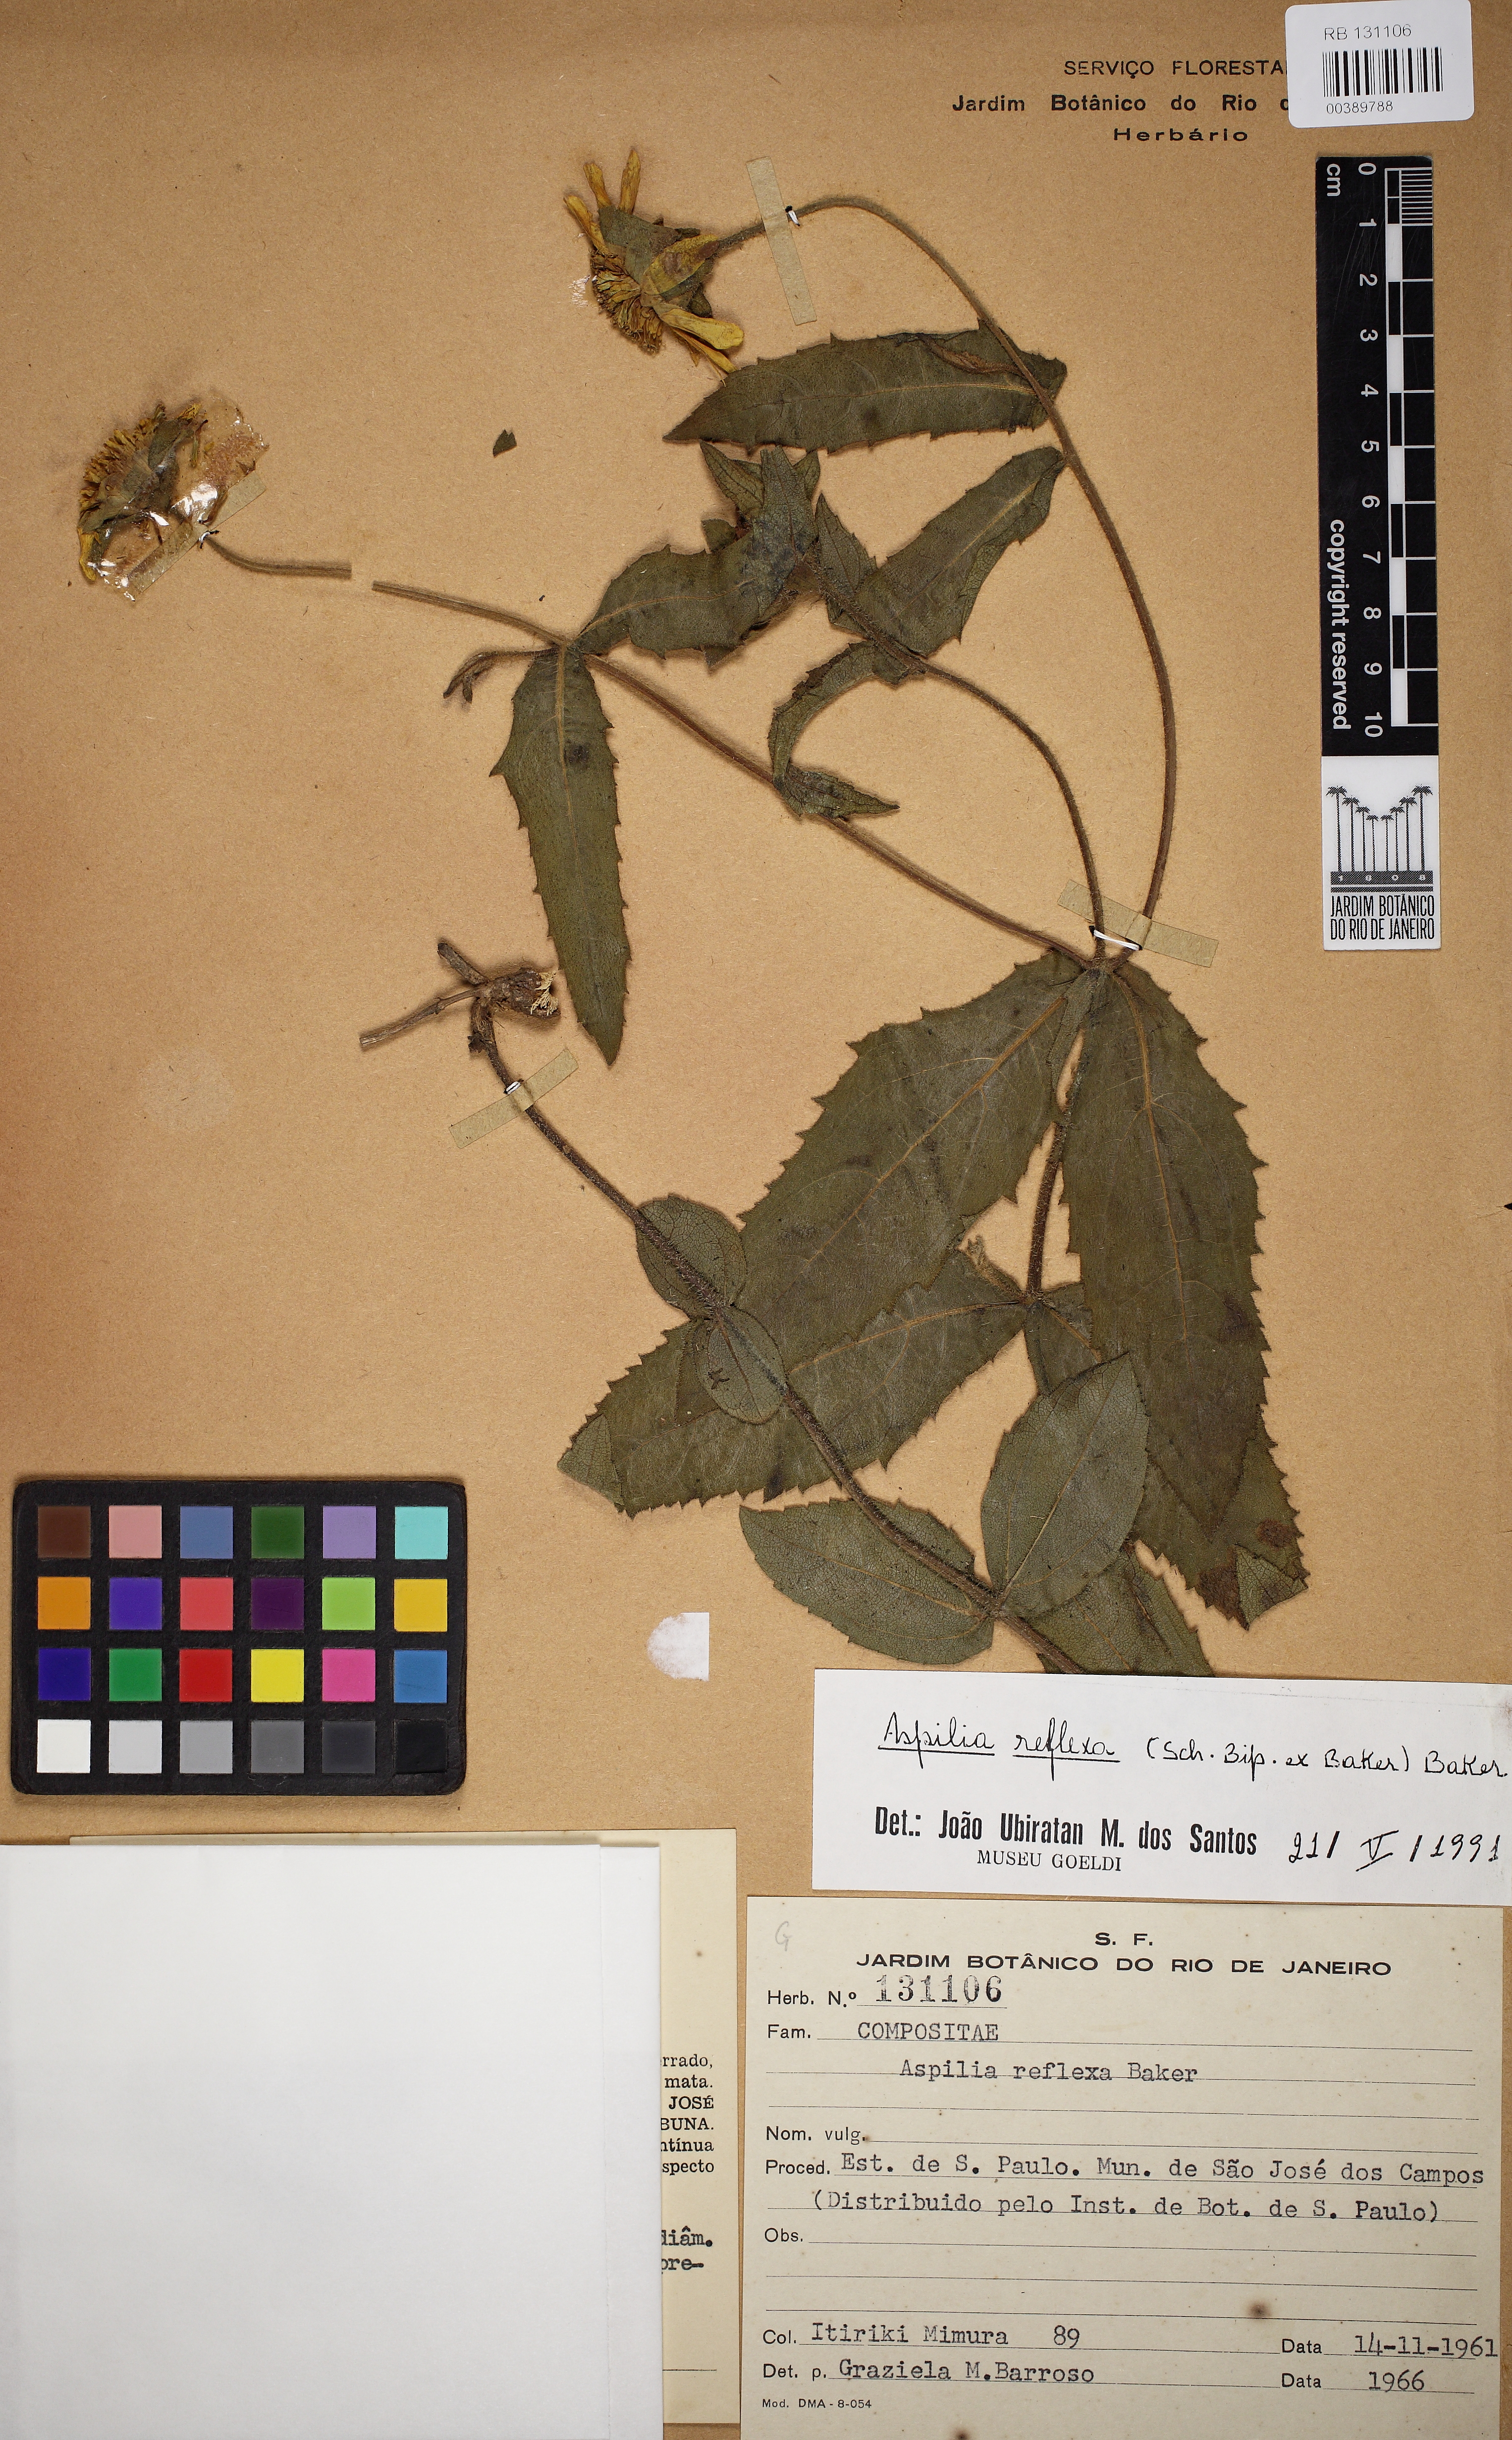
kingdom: Plantae
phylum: Tracheophyta
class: Magnoliopsida
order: Asterales
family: Asteraceae
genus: Wedelia
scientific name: Wedelia reflexa
